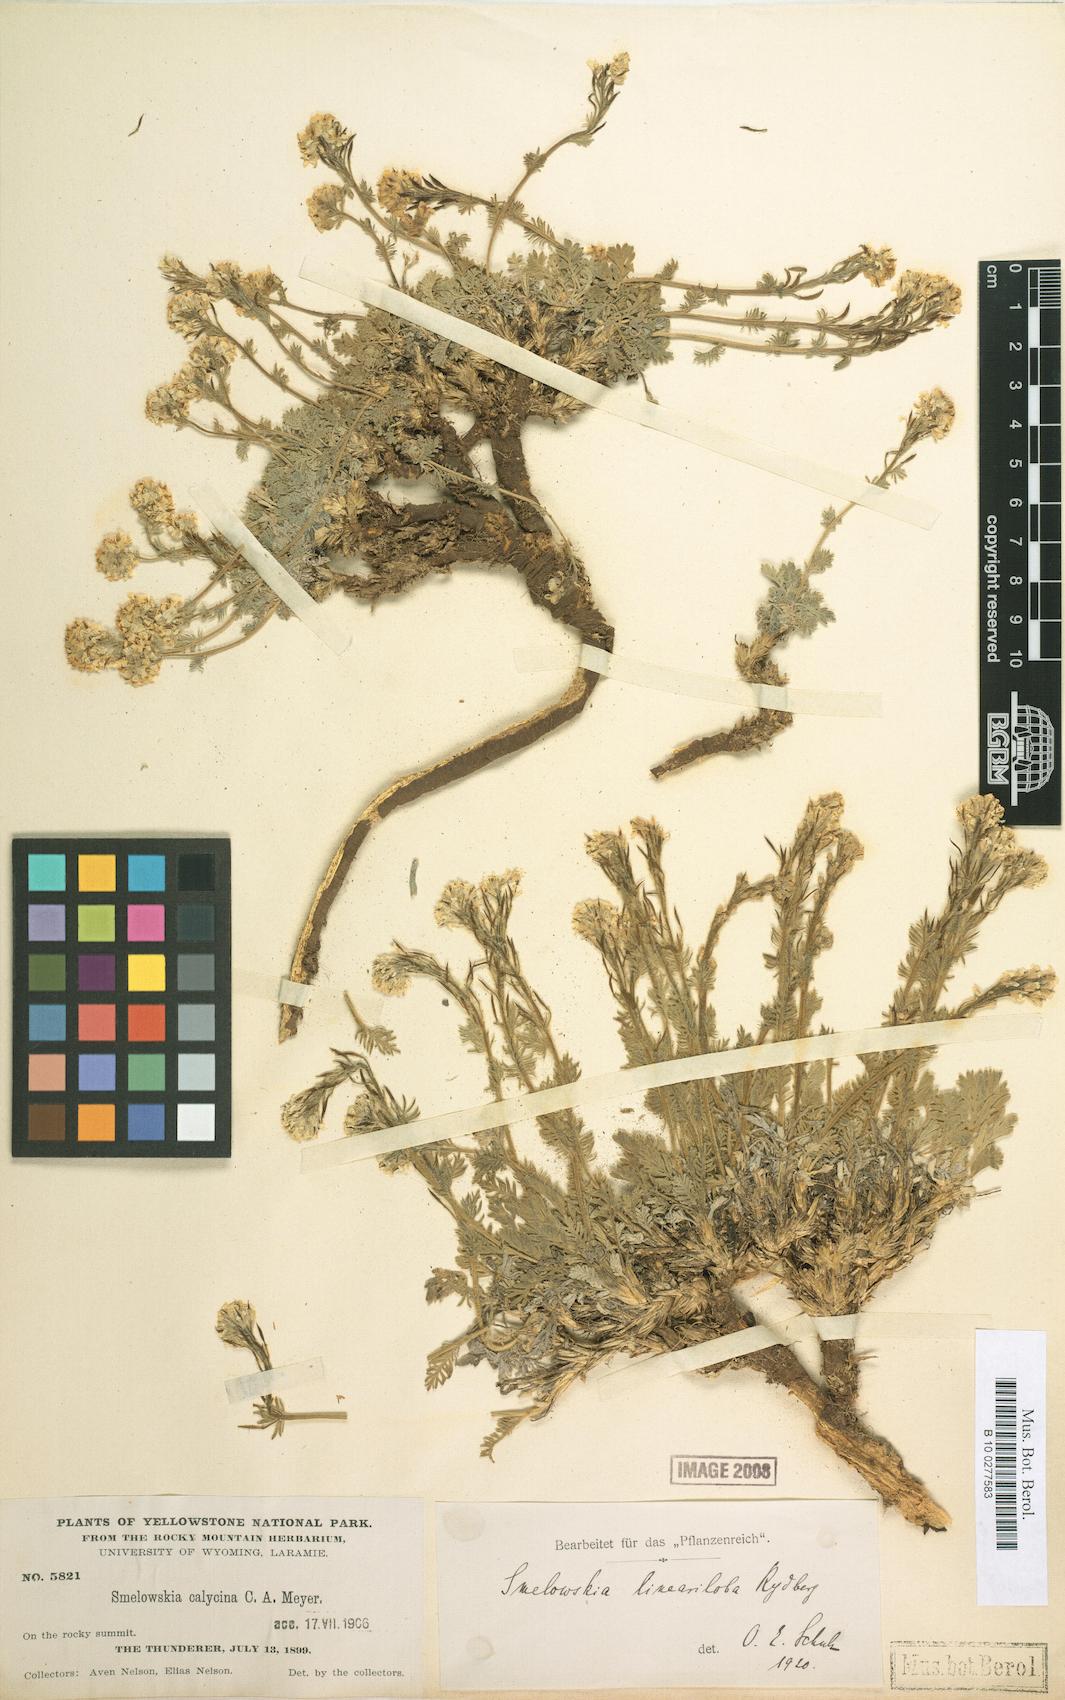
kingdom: Plantae
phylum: Tracheophyta
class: Magnoliopsida
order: Brassicales
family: Brassicaceae
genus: Smelowskia
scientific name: Smelowskia americana
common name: American false candytuft
